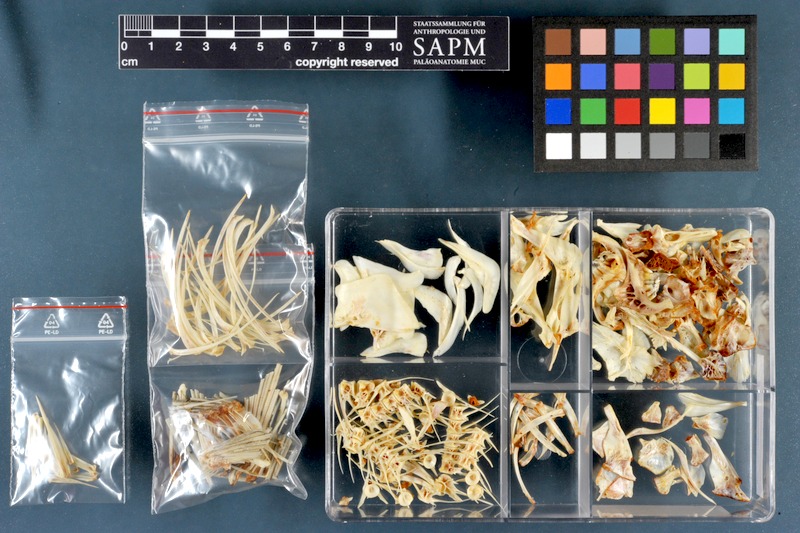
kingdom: Animalia
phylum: Chordata
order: Cypriniformes
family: Cyprinidae
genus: Mesopotamichthys
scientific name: Mesopotamichthys sharpeyi
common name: Binni
